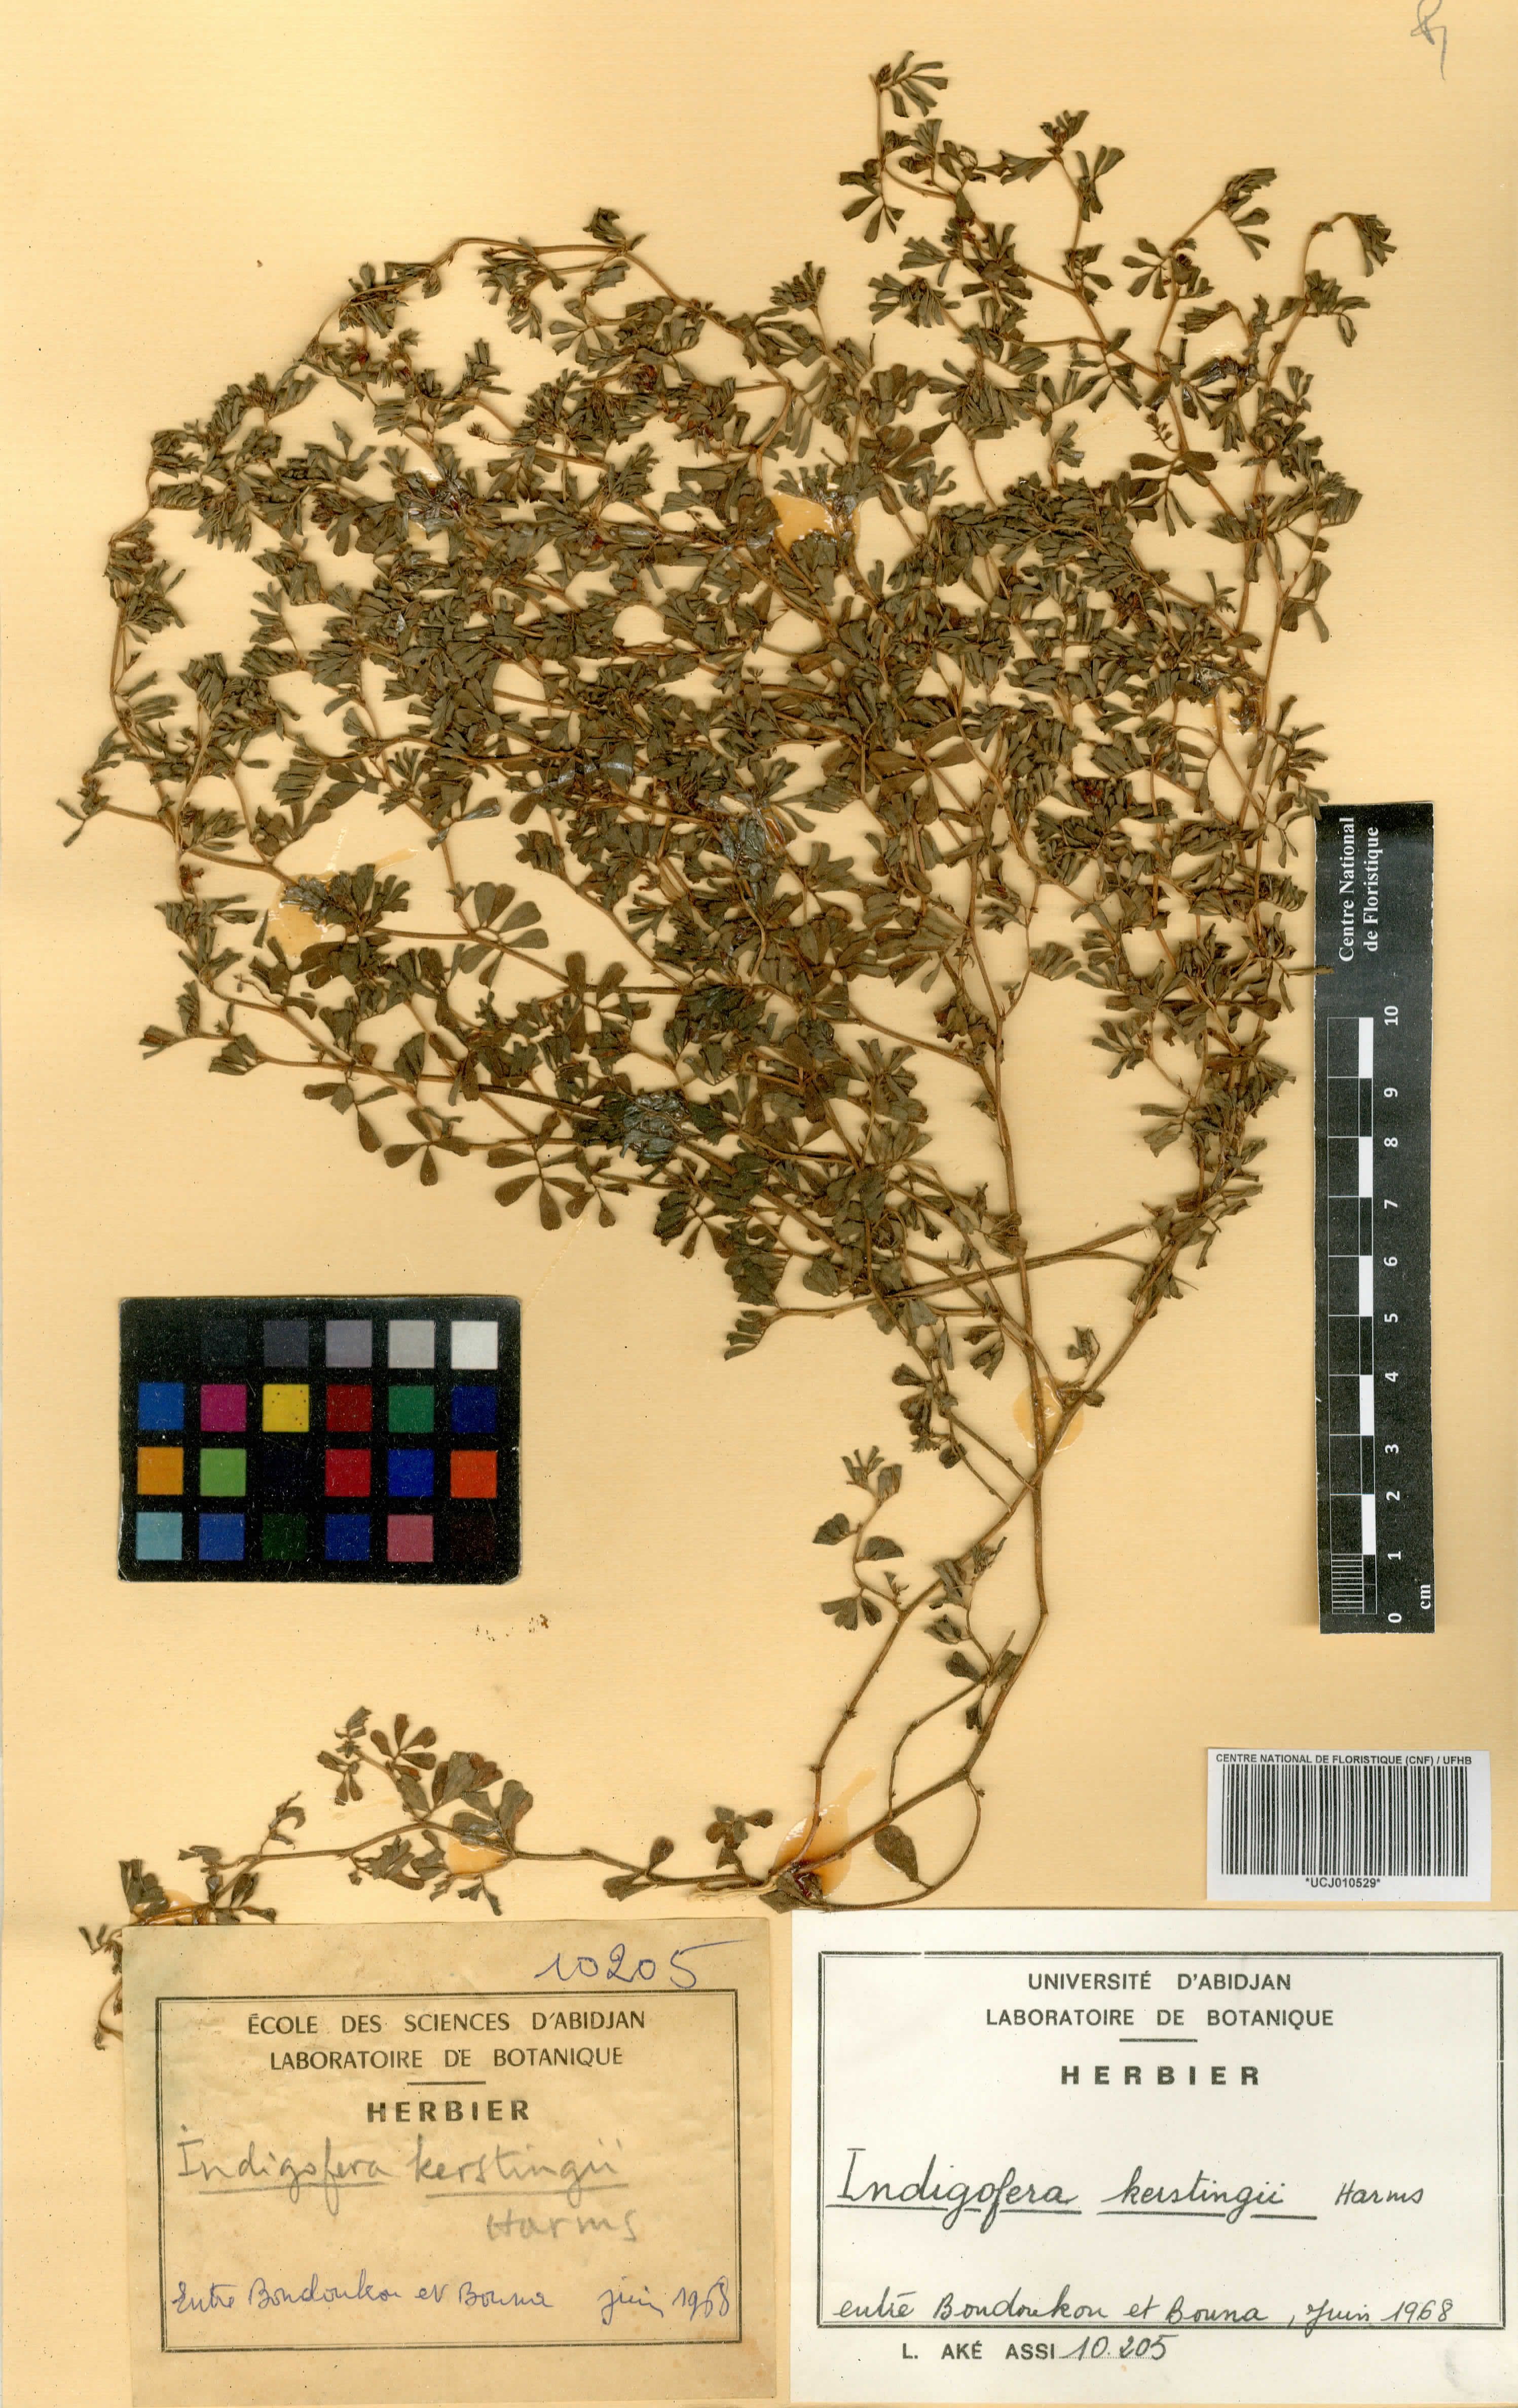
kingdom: Plantae
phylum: Tracheophyta
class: Magnoliopsida
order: Fabales
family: Fabaceae
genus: Indigofera
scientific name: Indigofera kerstingii
